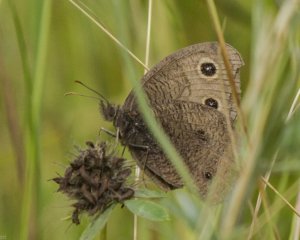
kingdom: Animalia
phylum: Arthropoda
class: Insecta
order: Lepidoptera
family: Nymphalidae
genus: Cercyonis
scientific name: Cercyonis pegala
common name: Common Wood-Nymph
